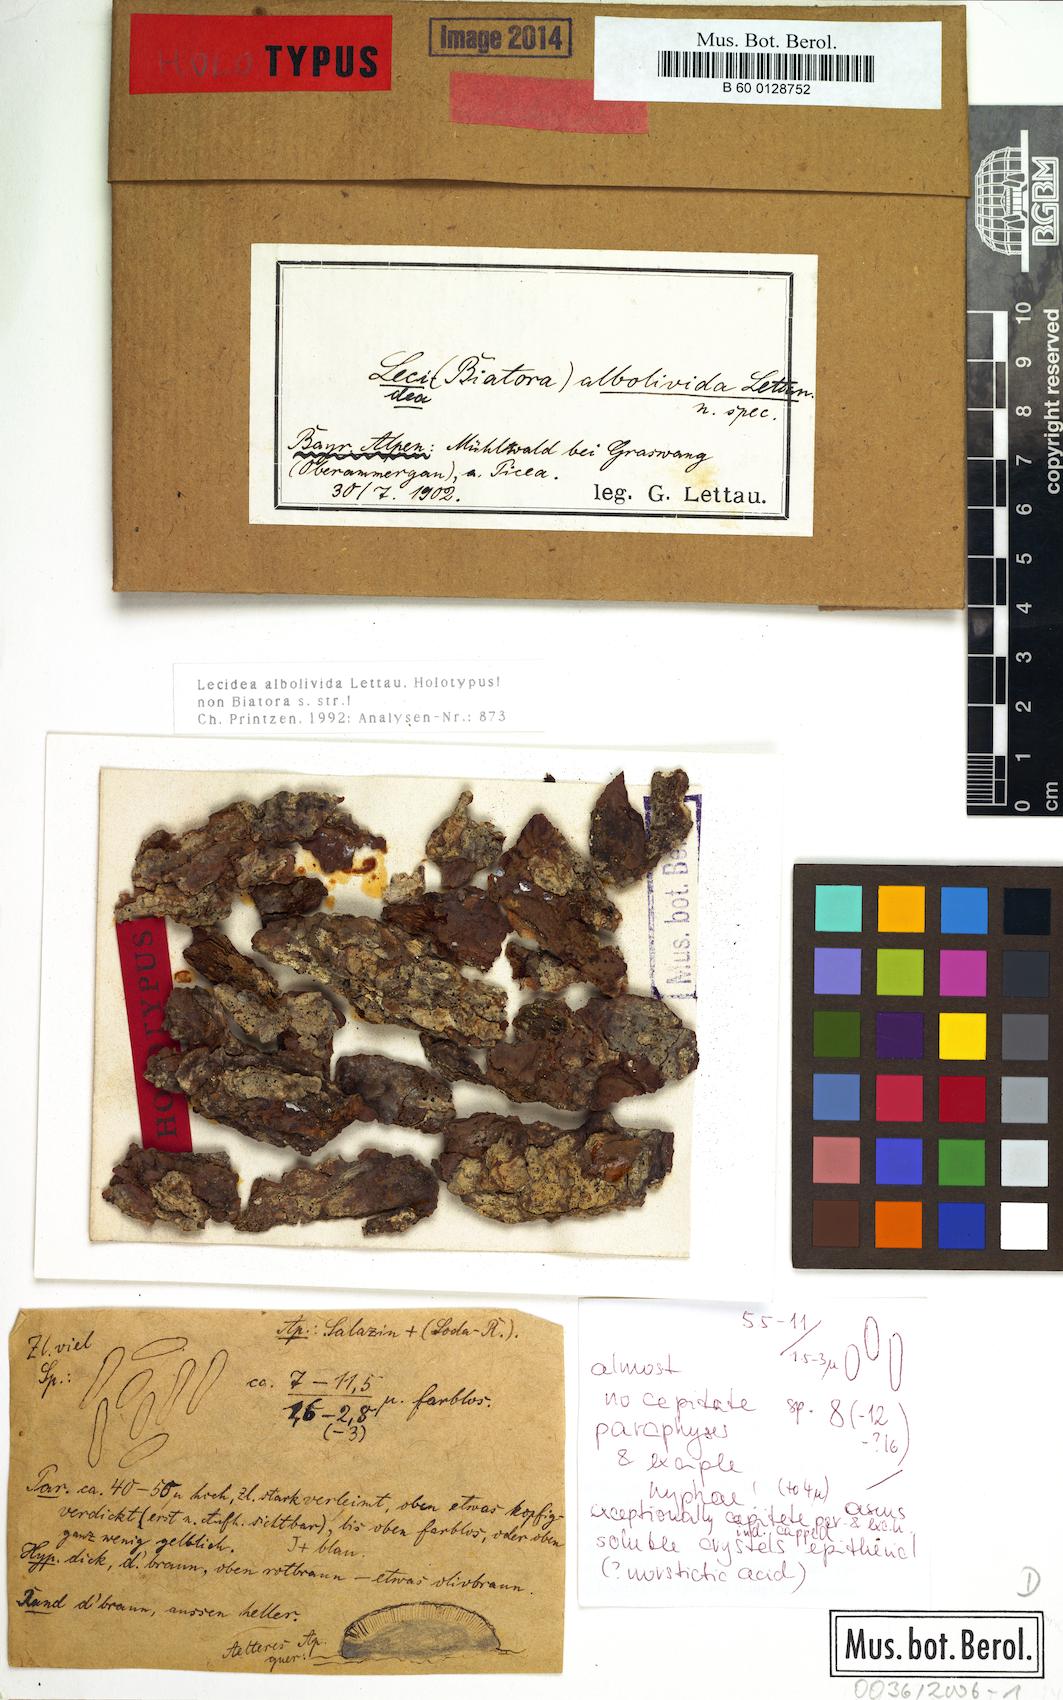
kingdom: Fungi
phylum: Ascomycota
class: Lecanoromycetes
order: Lecideales
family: Lecideaceae
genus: Lecidea
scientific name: Lecidea
